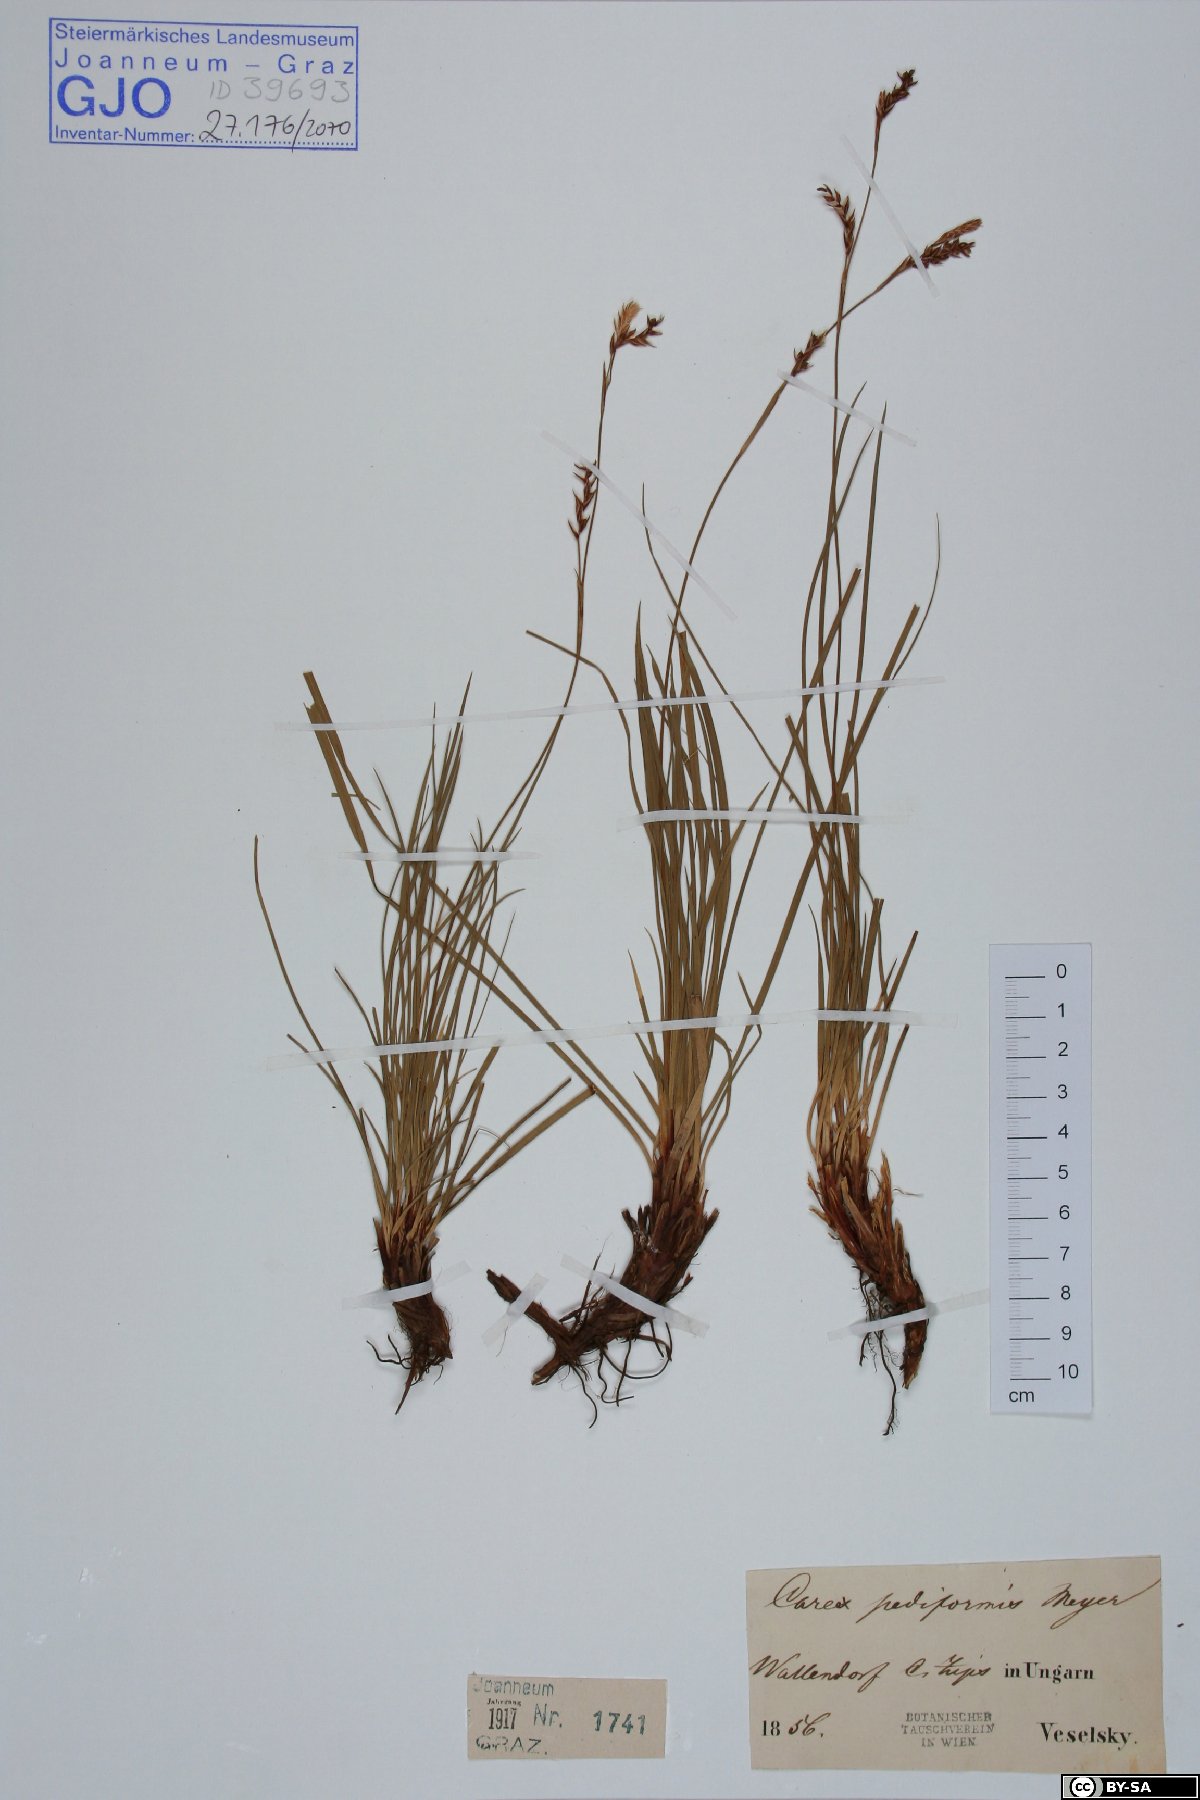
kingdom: Plantae
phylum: Tracheophyta
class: Liliopsida
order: Poales
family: Cyperaceae
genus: Carex
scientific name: Carex pediformis
